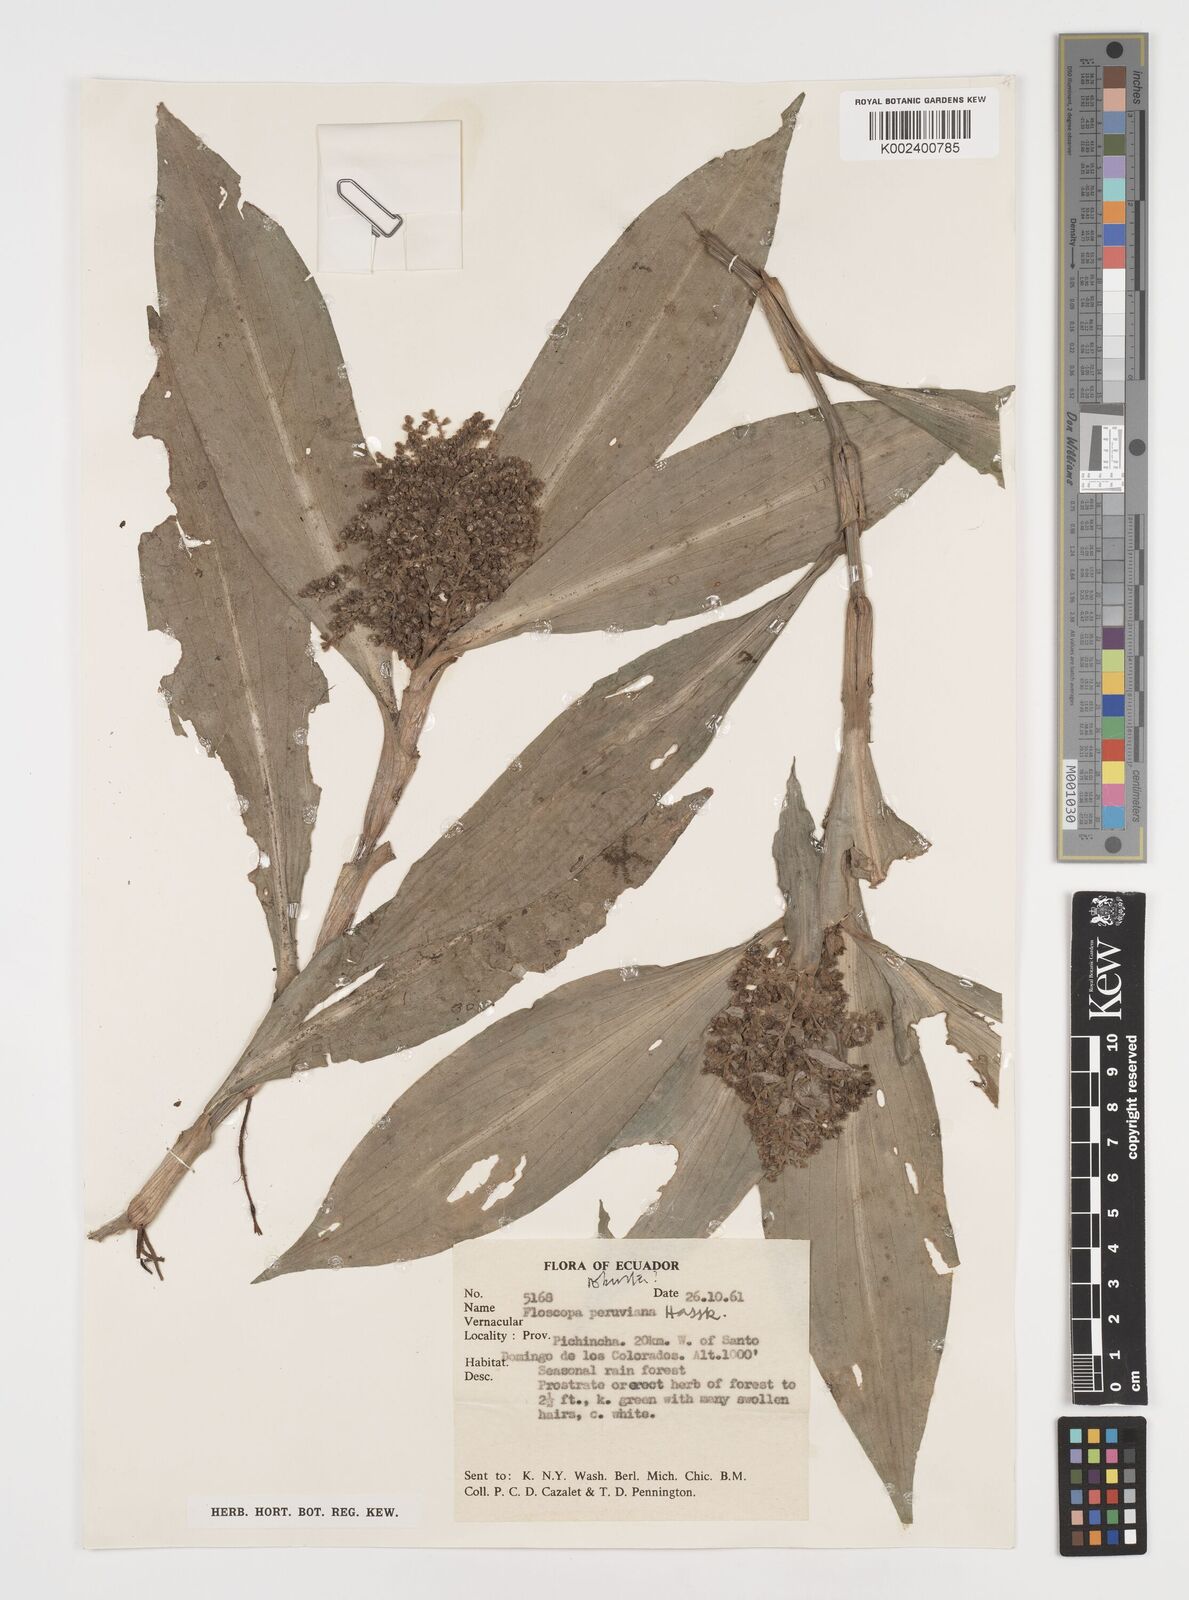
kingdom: Plantae
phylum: Tracheophyta
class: Liliopsida
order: Commelinales
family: Commelinaceae
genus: Floscopa
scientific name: Floscopa peruviana
